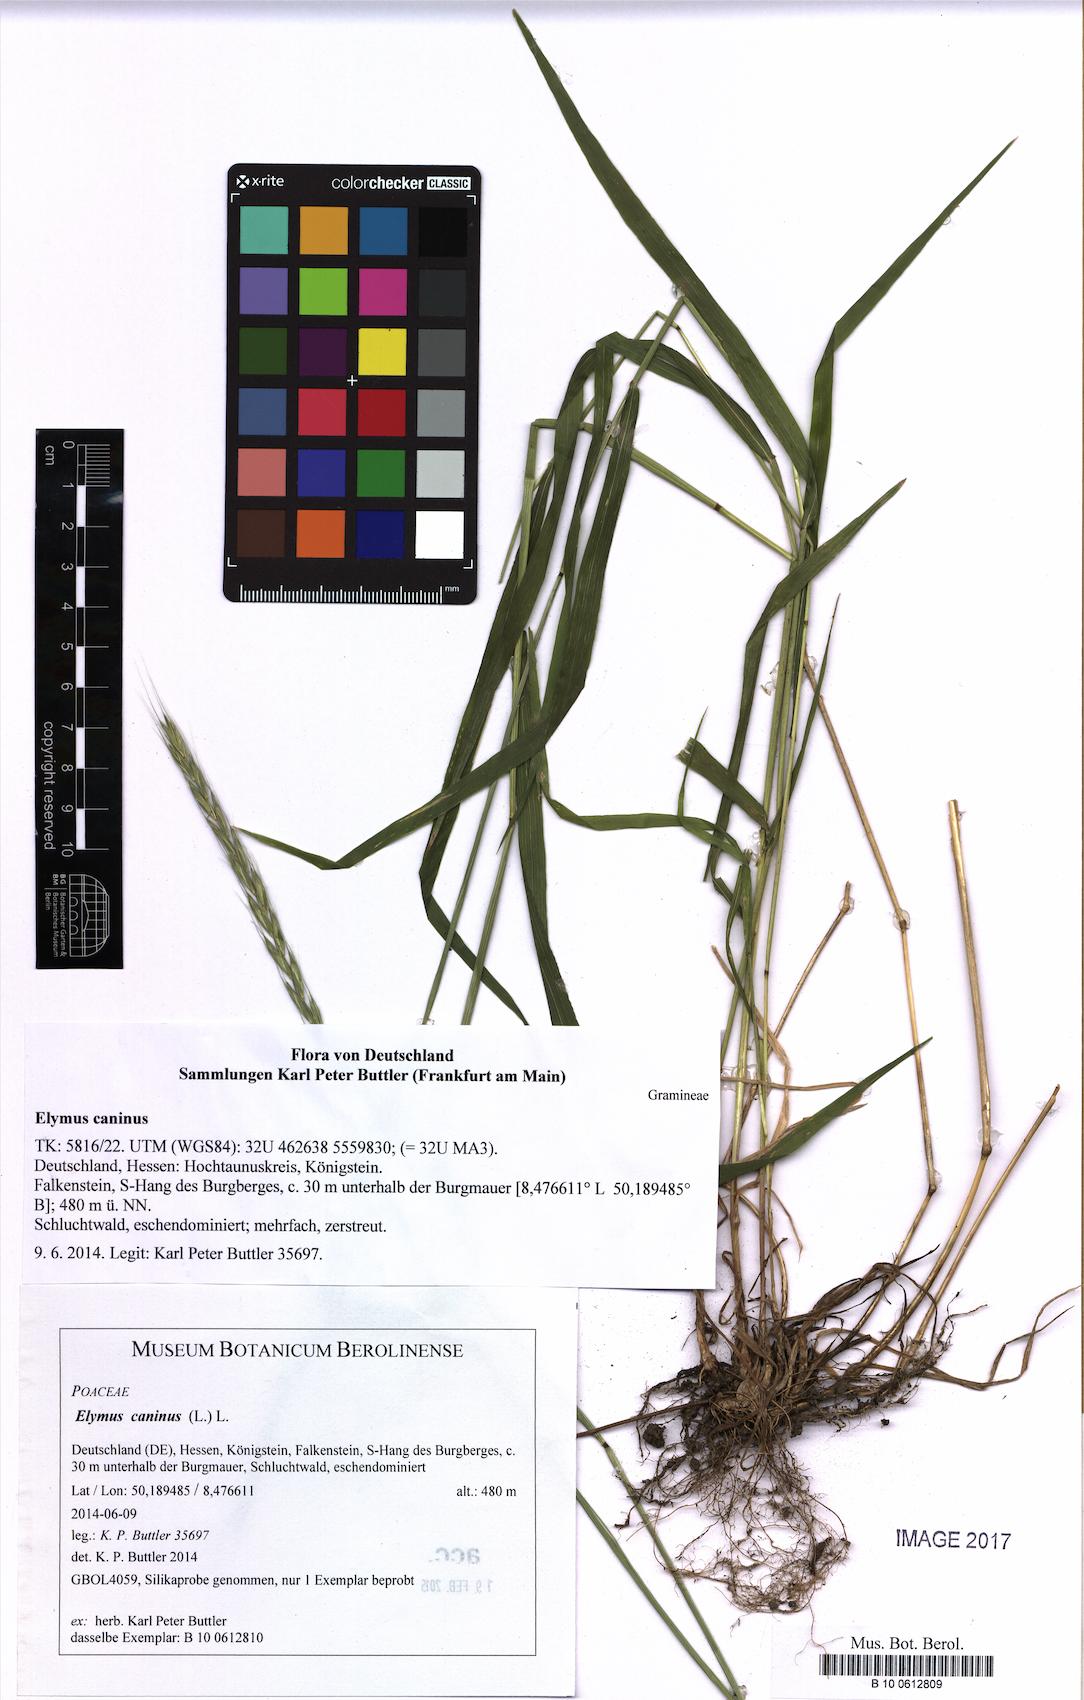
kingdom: Plantae
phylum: Tracheophyta
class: Liliopsida
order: Poales
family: Poaceae
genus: Elymus
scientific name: Elymus caninus
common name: Bearded couch
